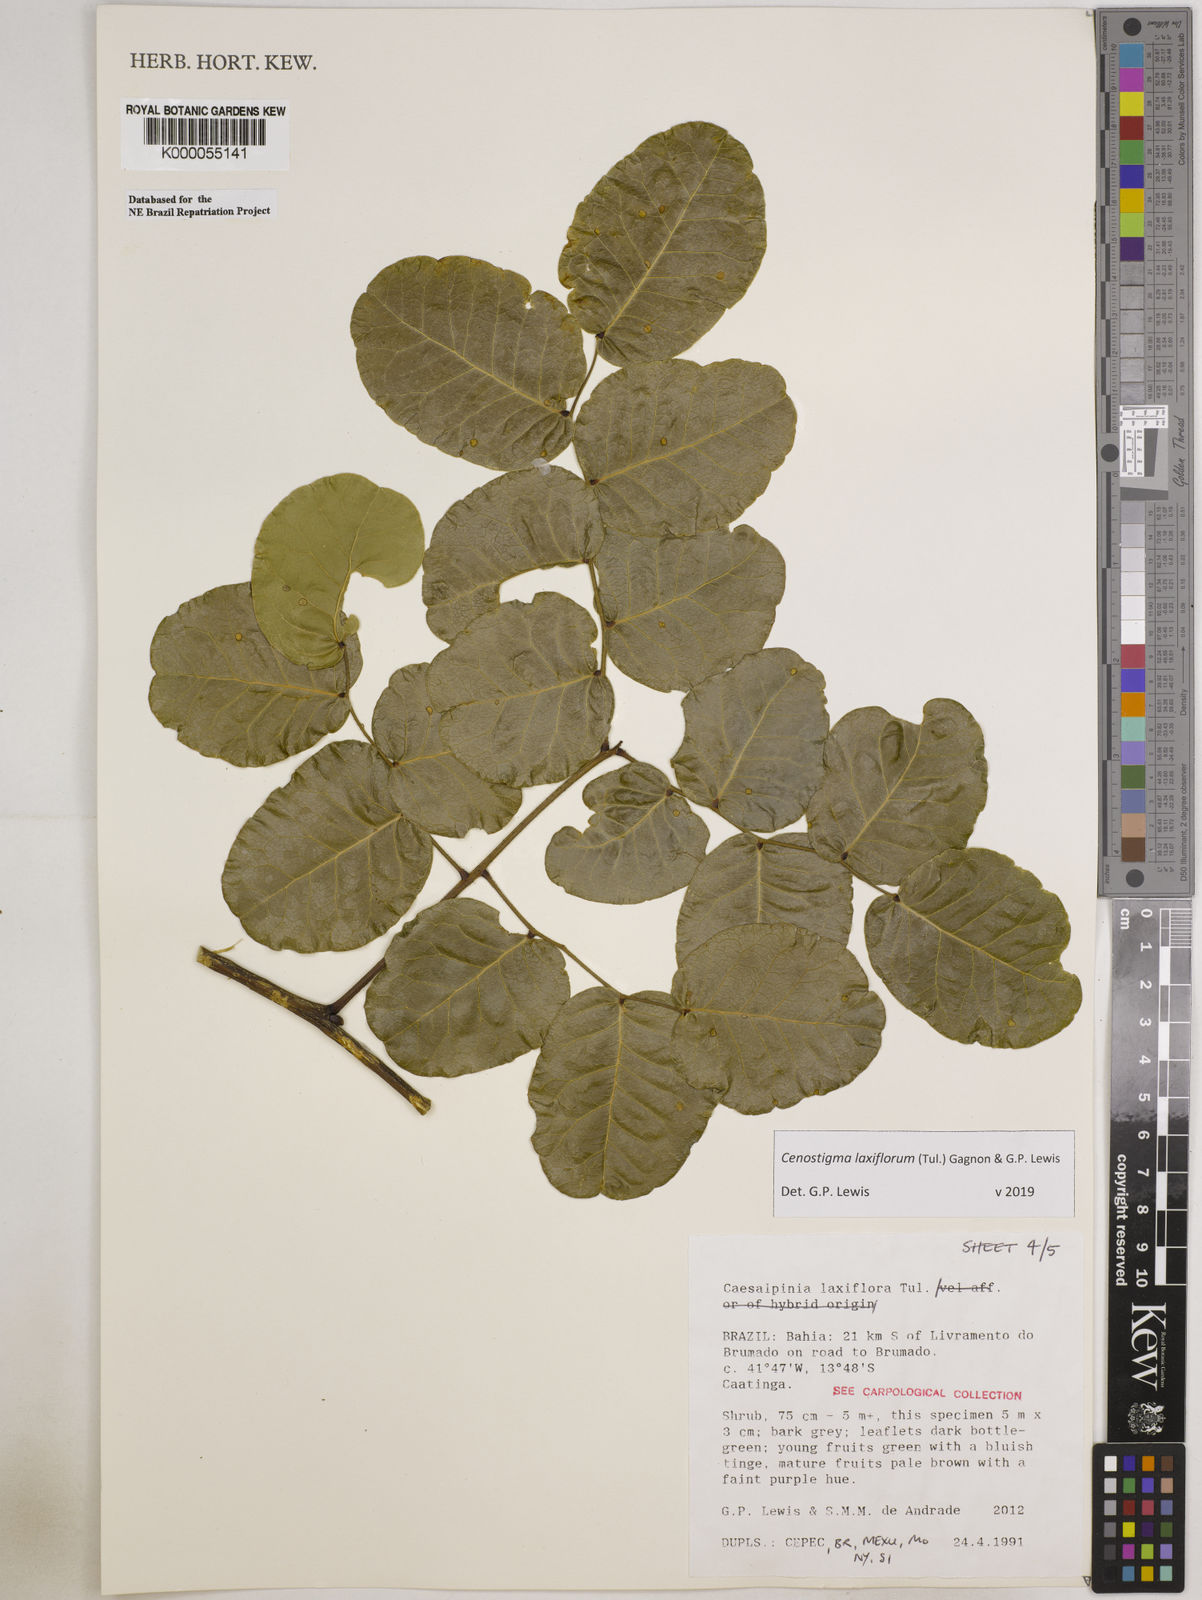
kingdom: Plantae
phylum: Tracheophyta
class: Magnoliopsida
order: Fabales
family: Fabaceae
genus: Cenostigma
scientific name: Cenostigma laxiflorum
